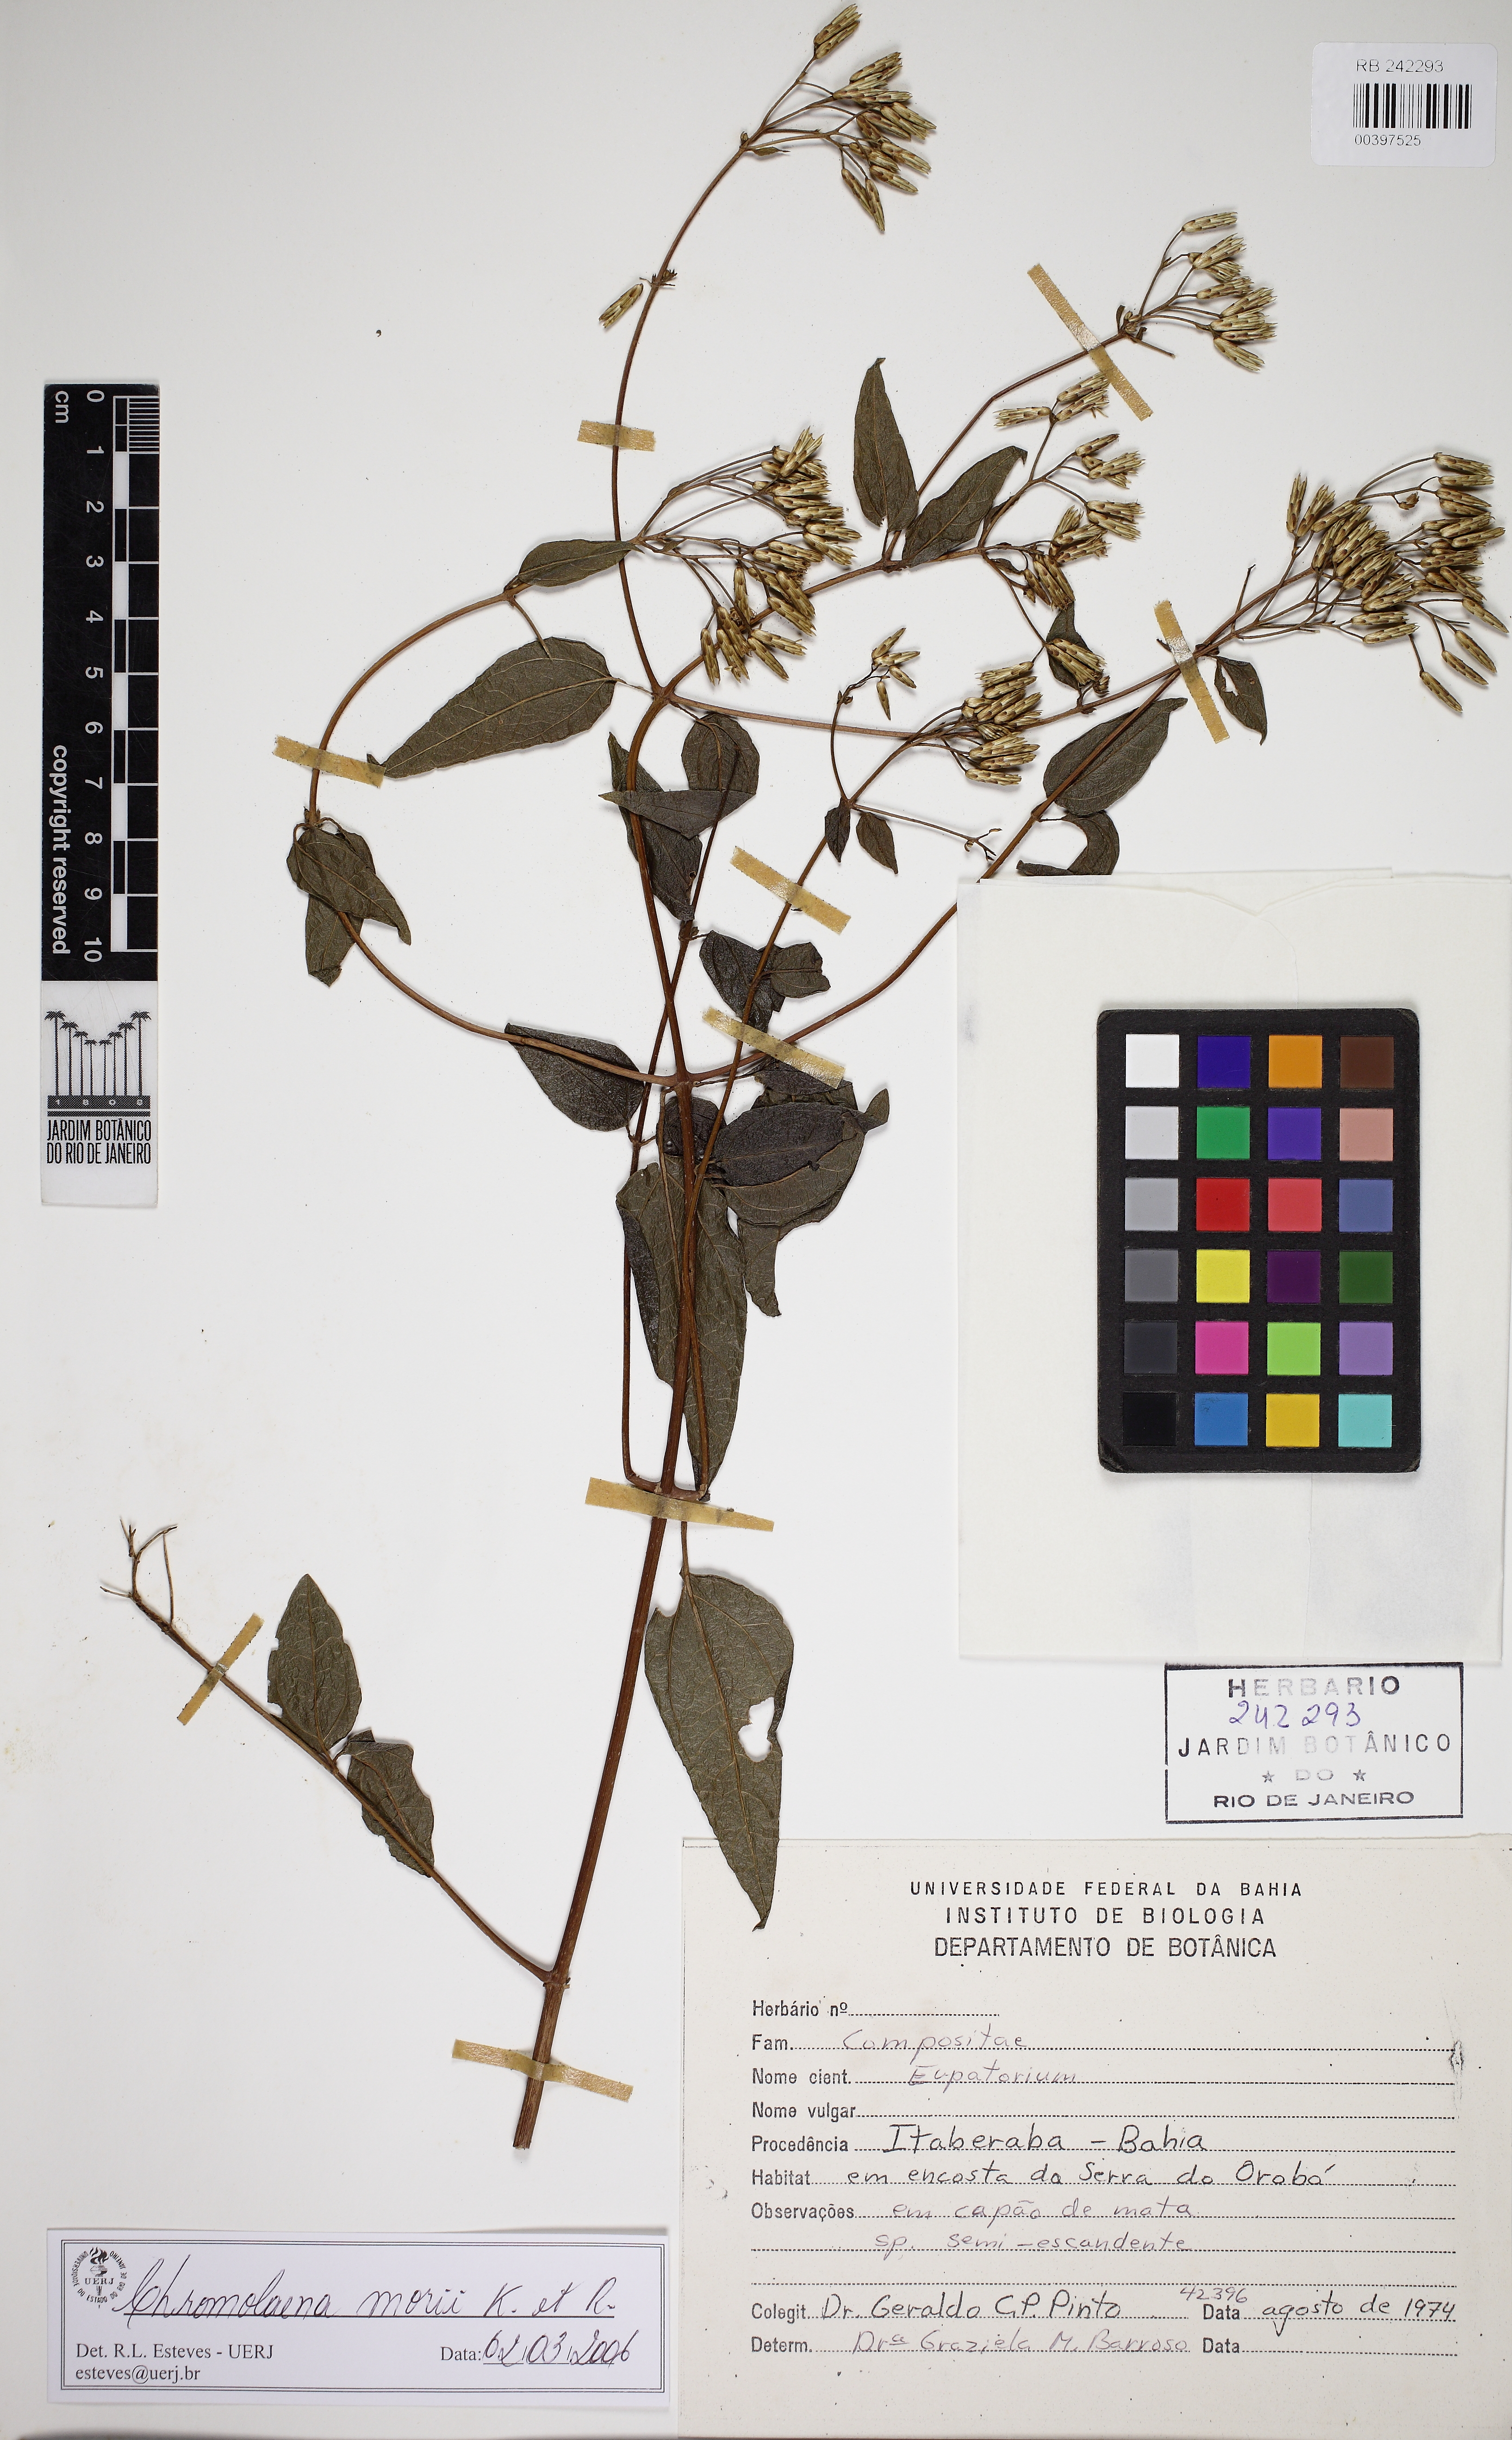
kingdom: Plantae
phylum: Tracheophyta
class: Magnoliopsida
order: Asterales
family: Asteraceae
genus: Chromolaena
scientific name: Chromolaena morii
